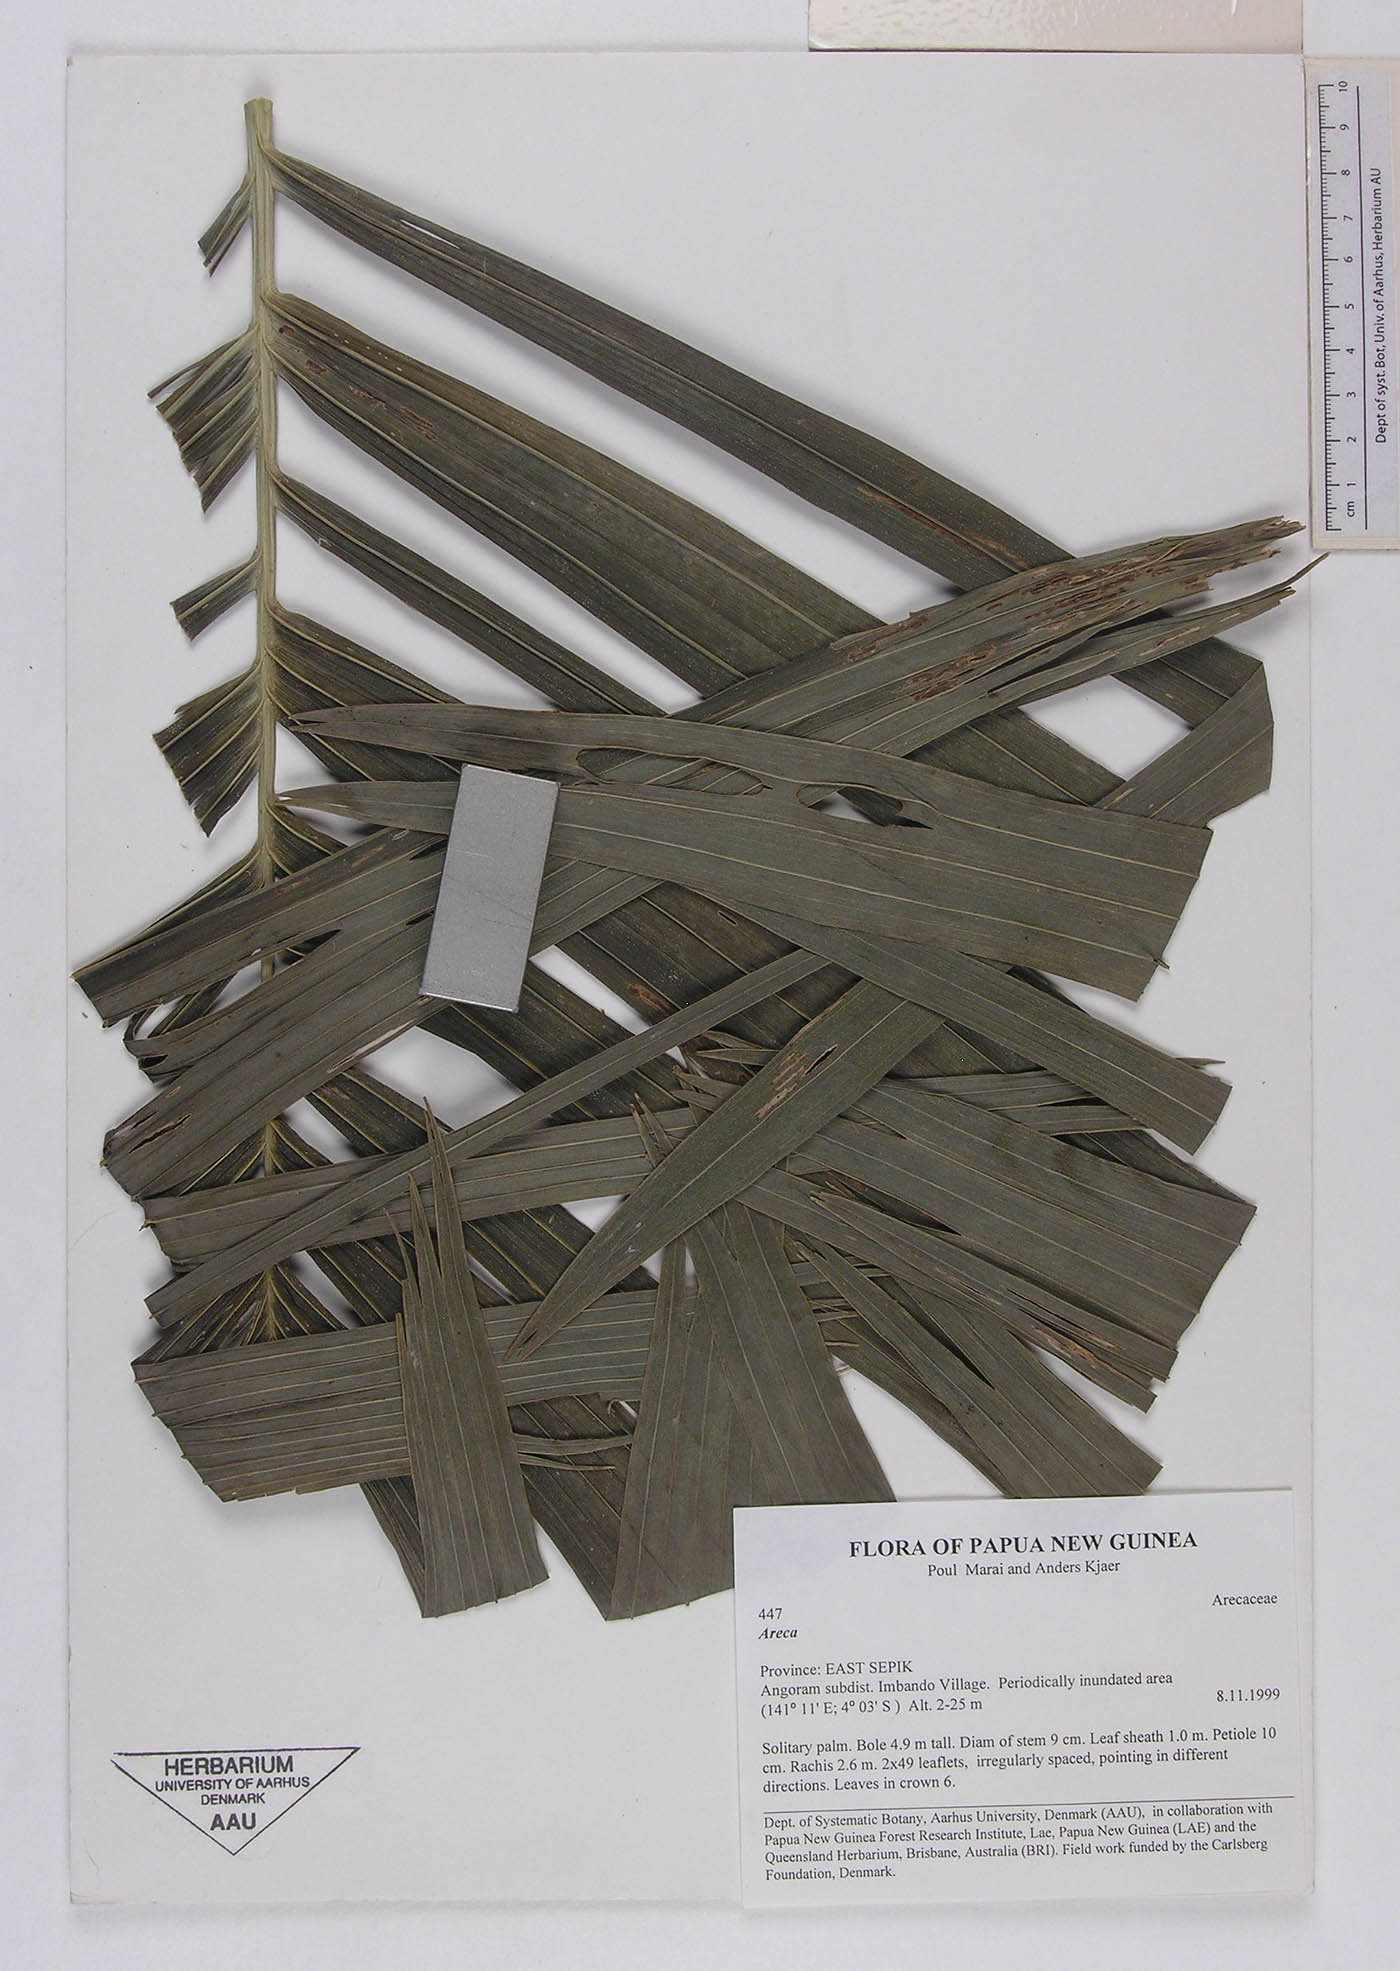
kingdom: Plantae
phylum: Tracheophyta
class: Liliopsida
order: Arecales
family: Arecaceae
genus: Areca
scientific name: Areca
